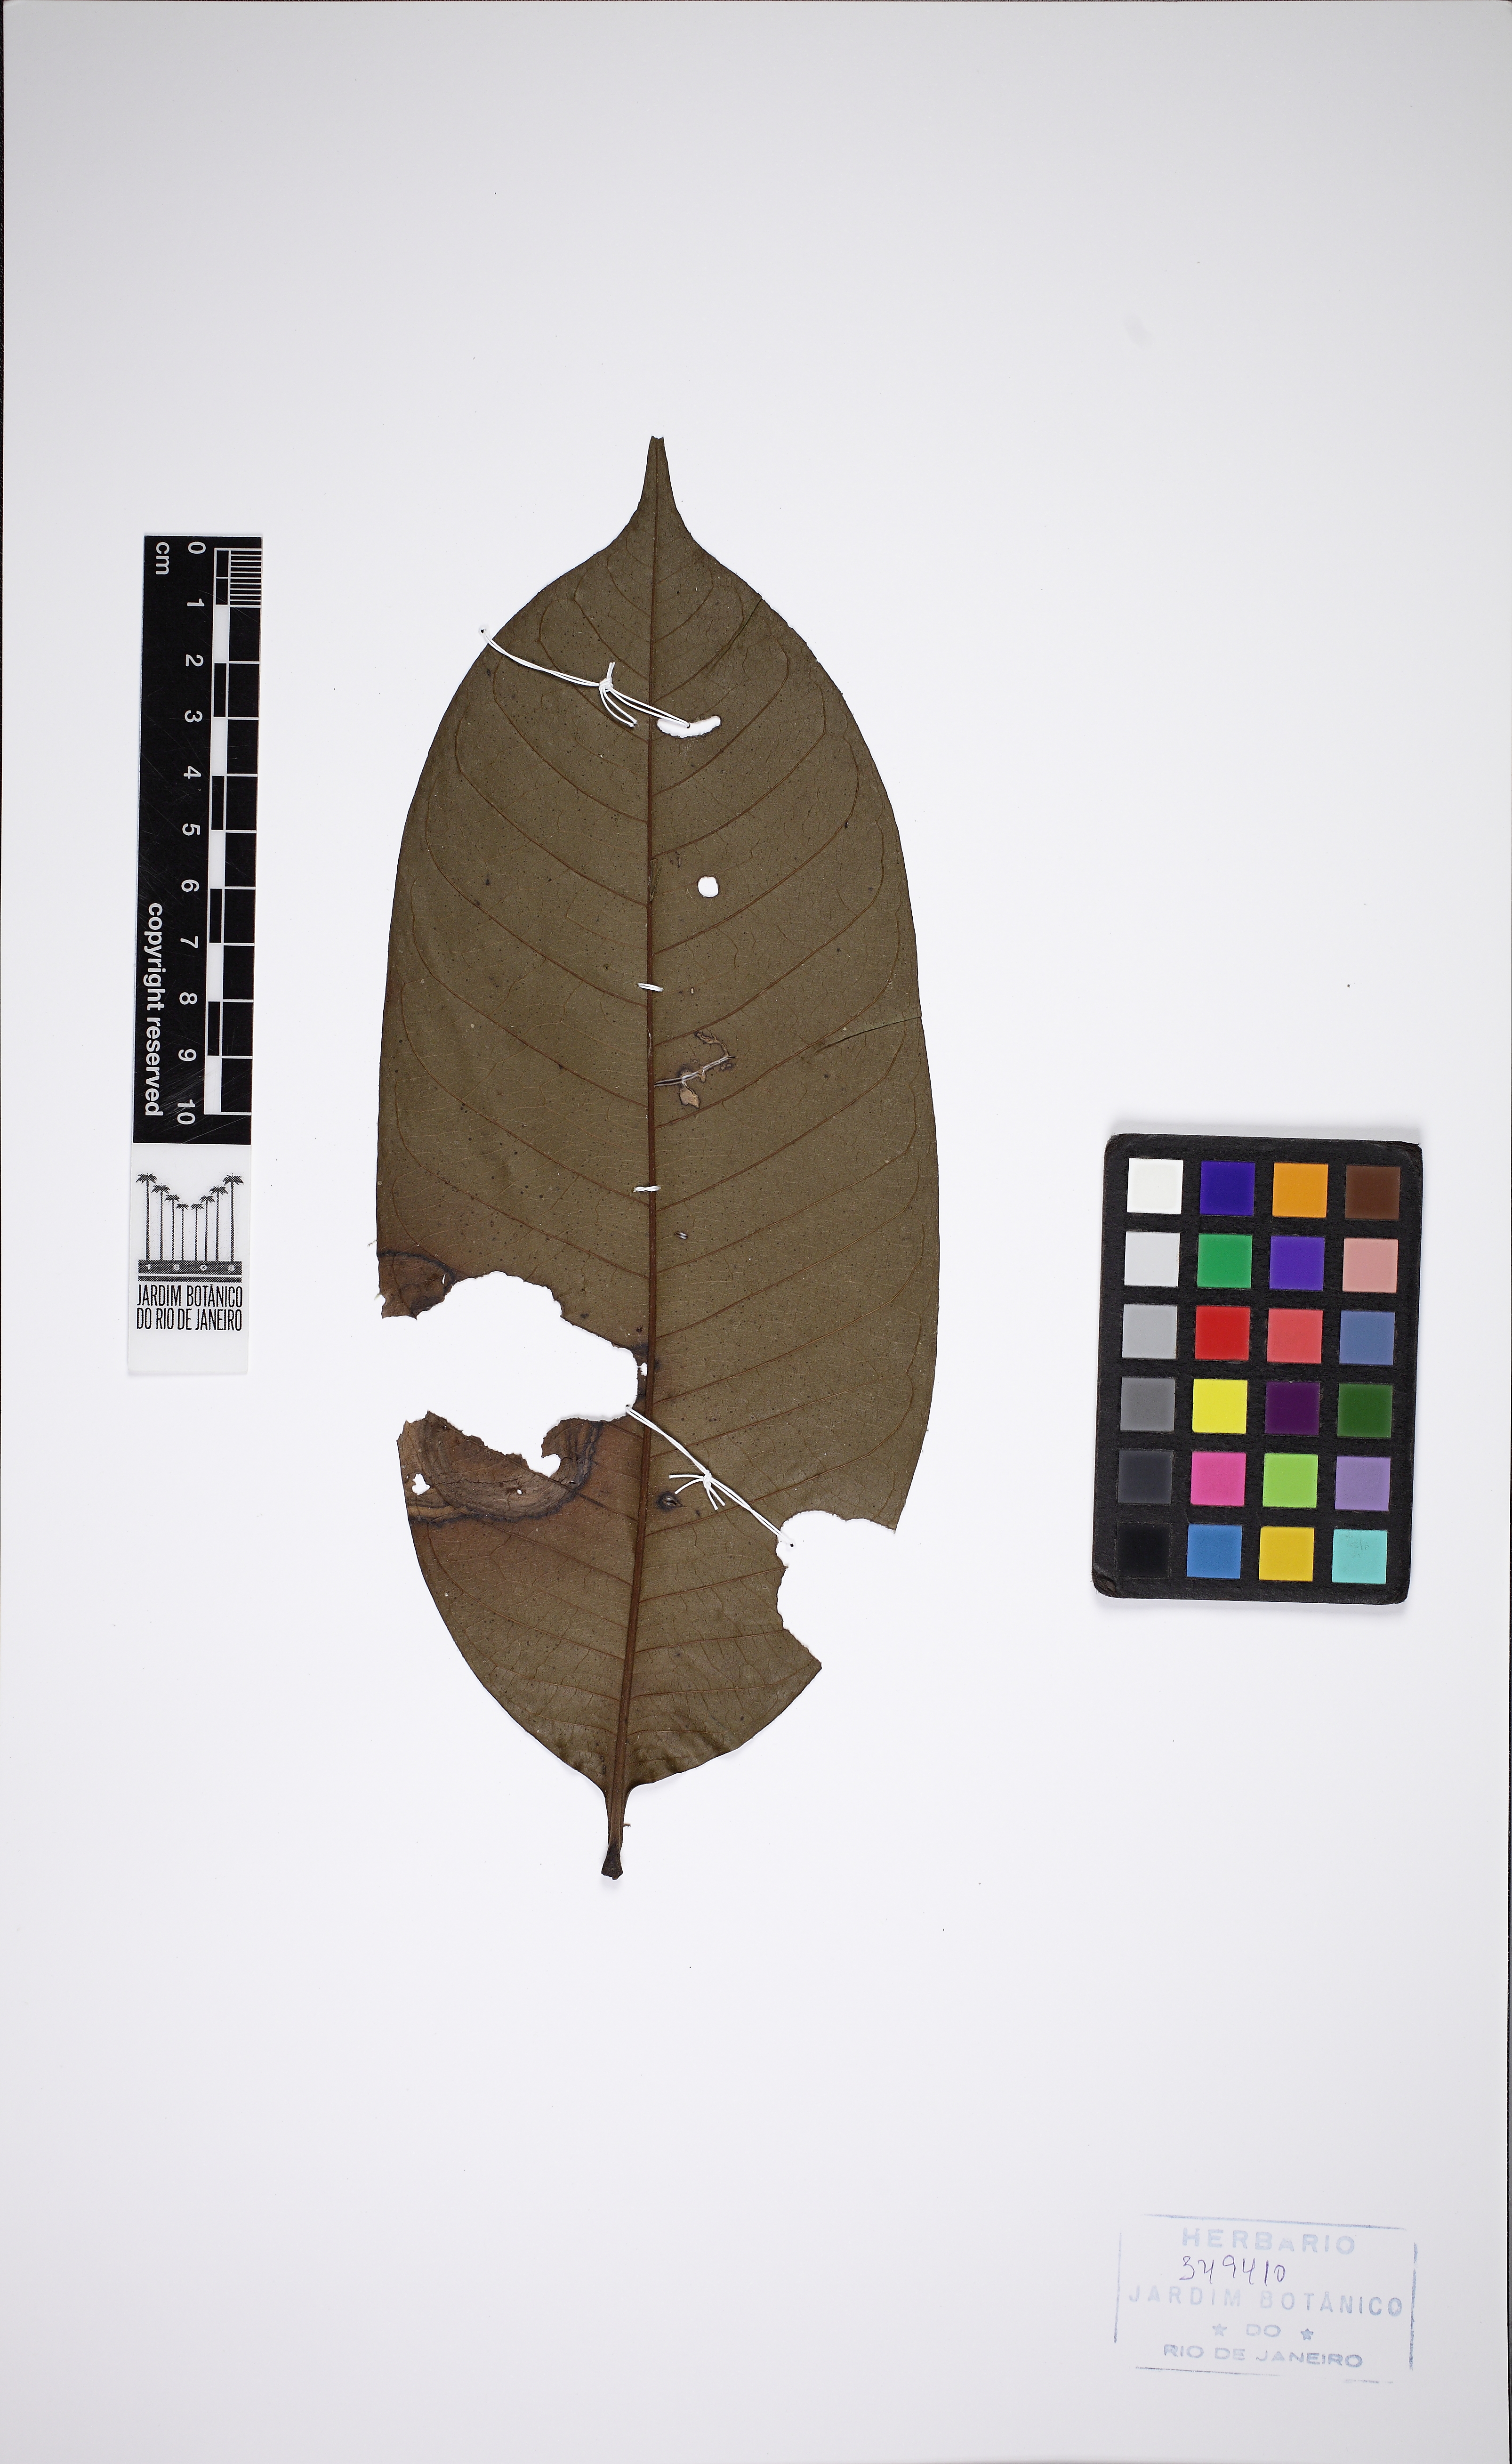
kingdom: Plantae
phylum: Tracheophyta
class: Magnoliopsida
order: Magnoliales
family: Annonaceae
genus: Guatteria
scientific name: Guatteria punctata
